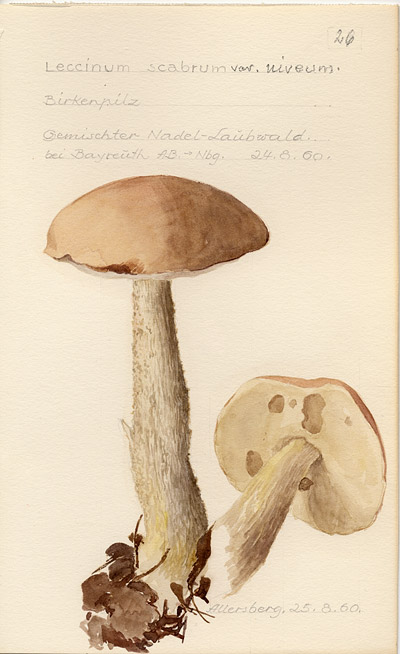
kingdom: Fungi
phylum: Basidiomycota
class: Agaricomycetes
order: Boletales
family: Boletaceae
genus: Leccinum
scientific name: Leccinum scabrum
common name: Blushing bolete
